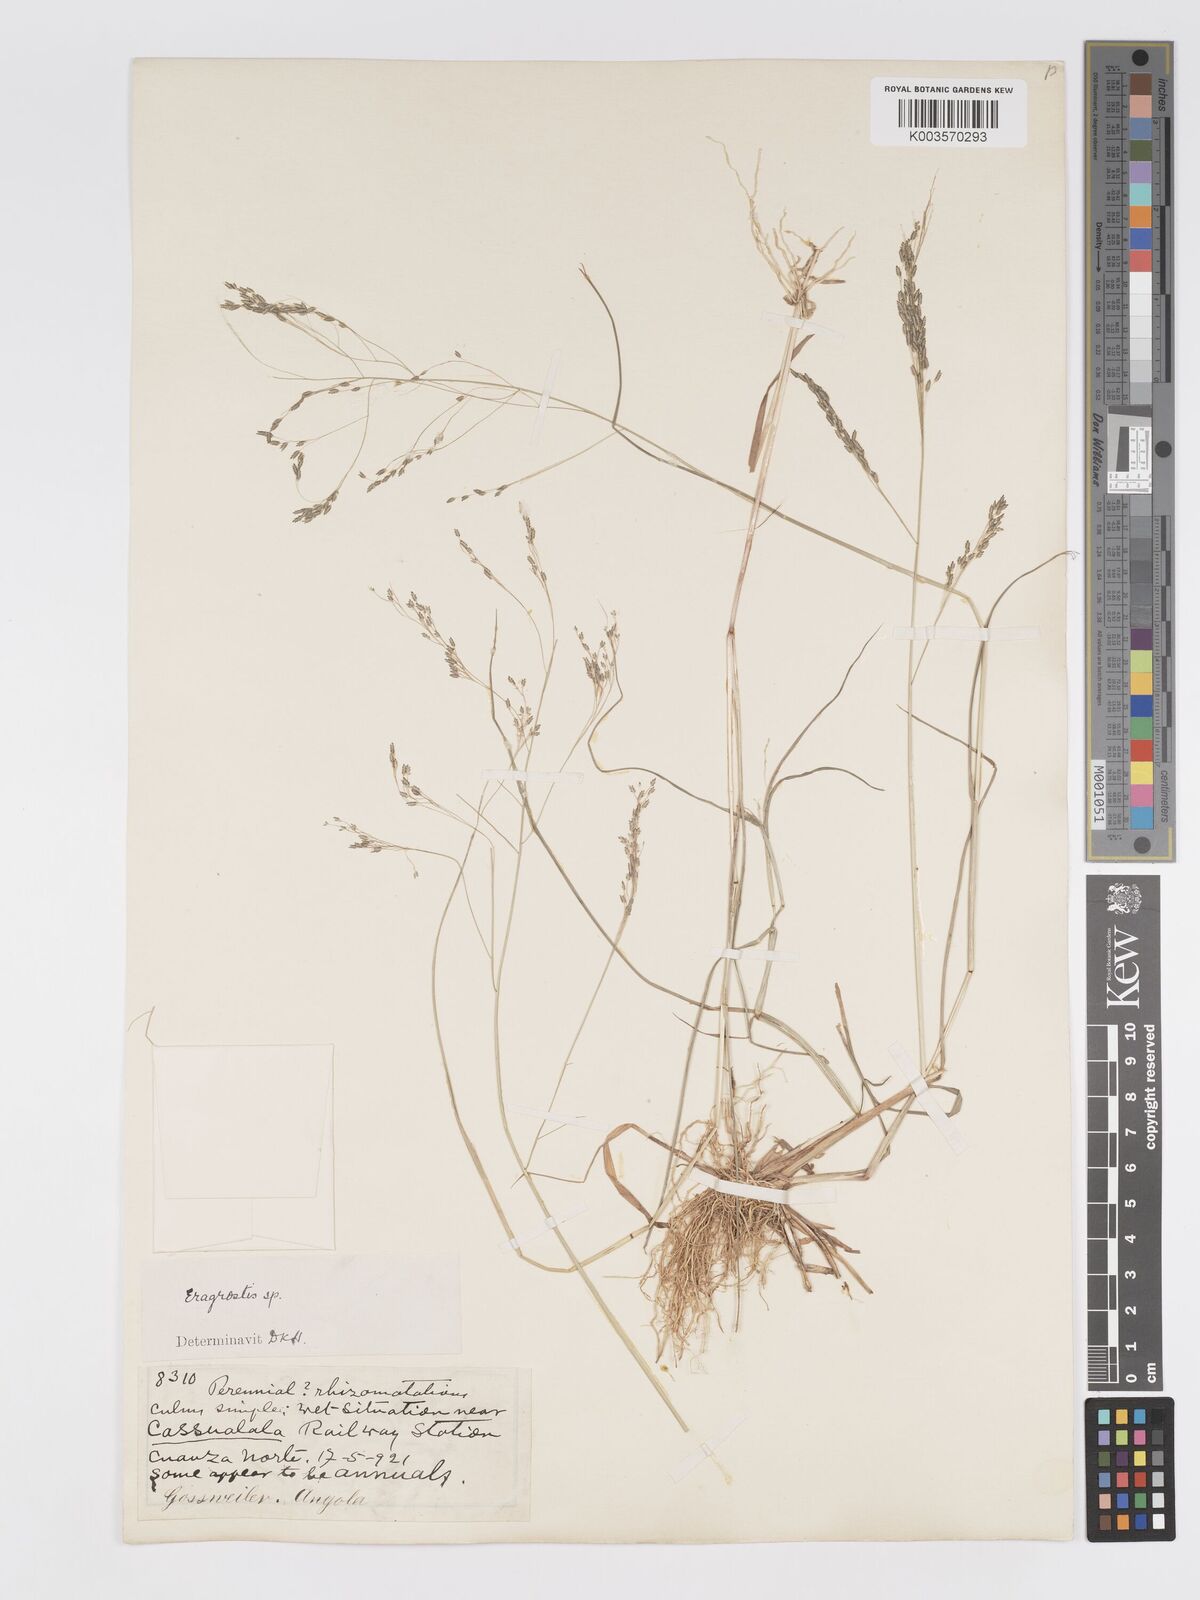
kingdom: Plantae
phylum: Tracheophyta
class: Liliopsida
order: Poales
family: Poaceae
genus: Eragrostis
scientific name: Eragrostis gangetica
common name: Slimflower lovegrass
